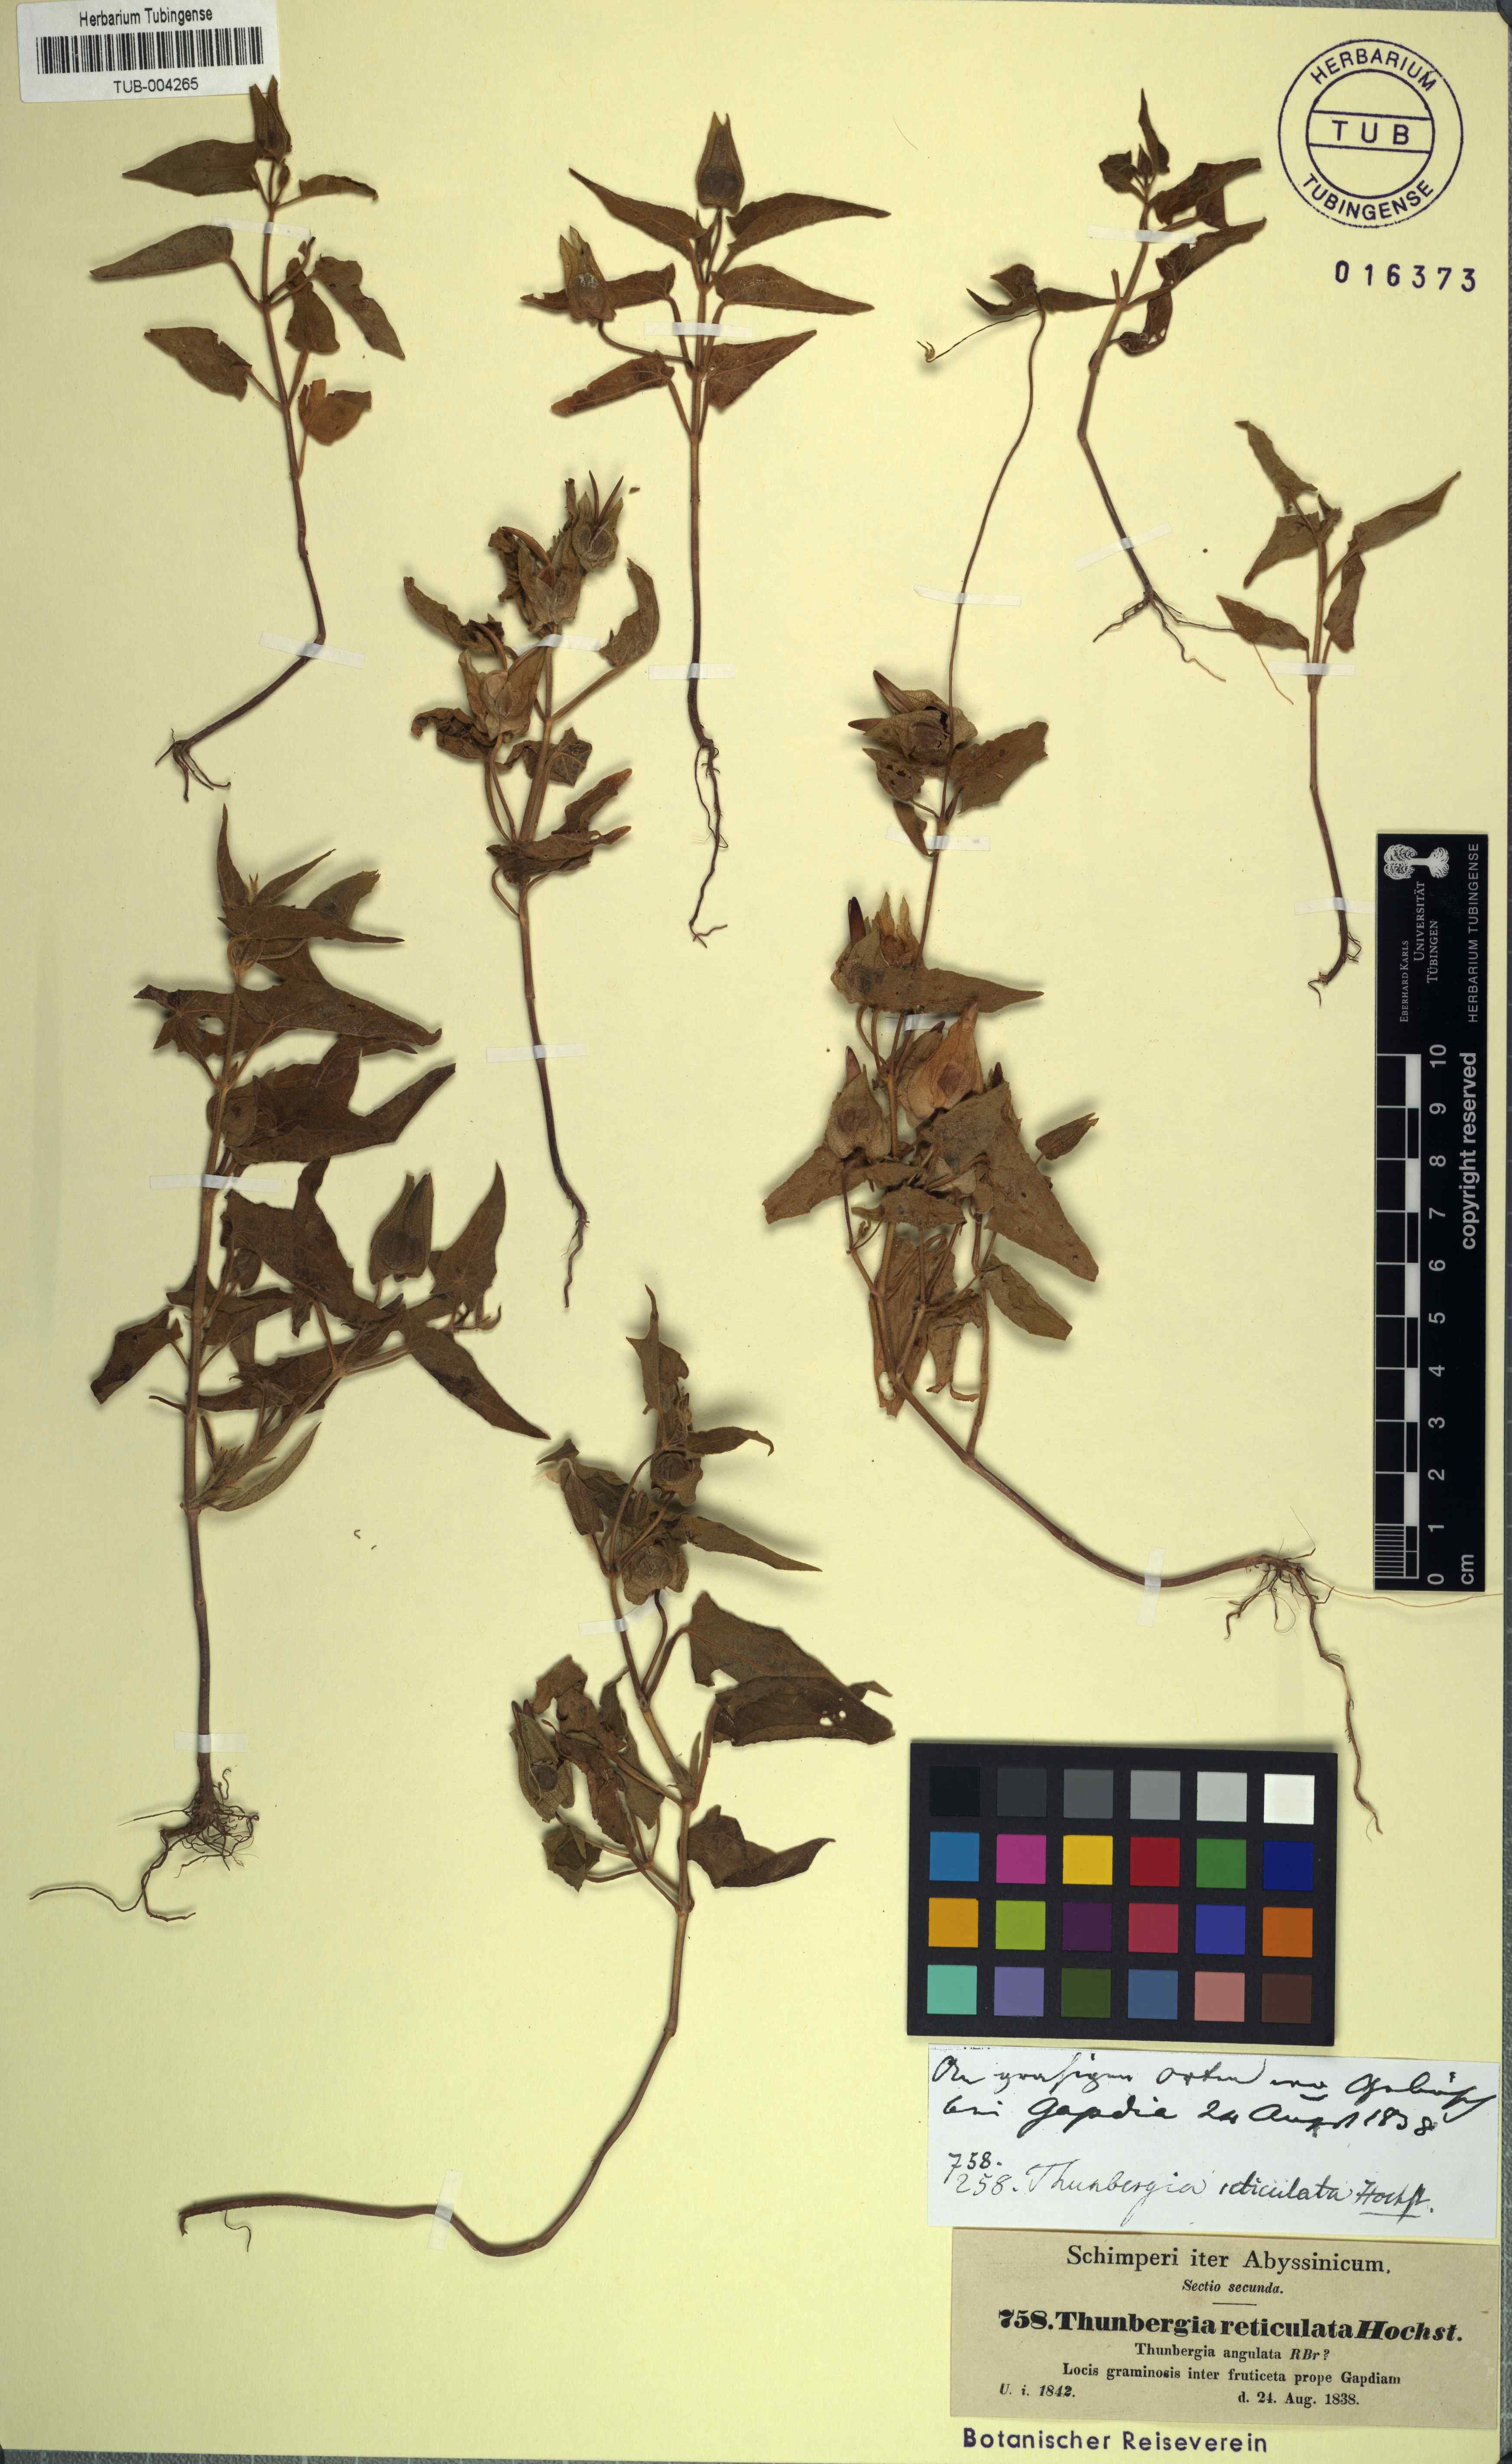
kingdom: Plantae
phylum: Tracheophyta
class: Magnoliopsida
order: Lamiales
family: Acanthaceae
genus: Thunbergia
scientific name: Thunbergia reticulata
